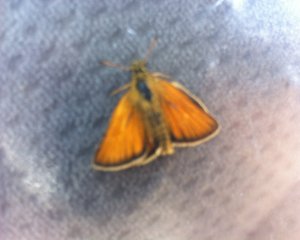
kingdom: Animalia
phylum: Arthropoda
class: Insecta
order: Lepidoptera
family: Hesperiidae
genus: Thymelicus
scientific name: Thymelicus lineola
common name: European Skipper
